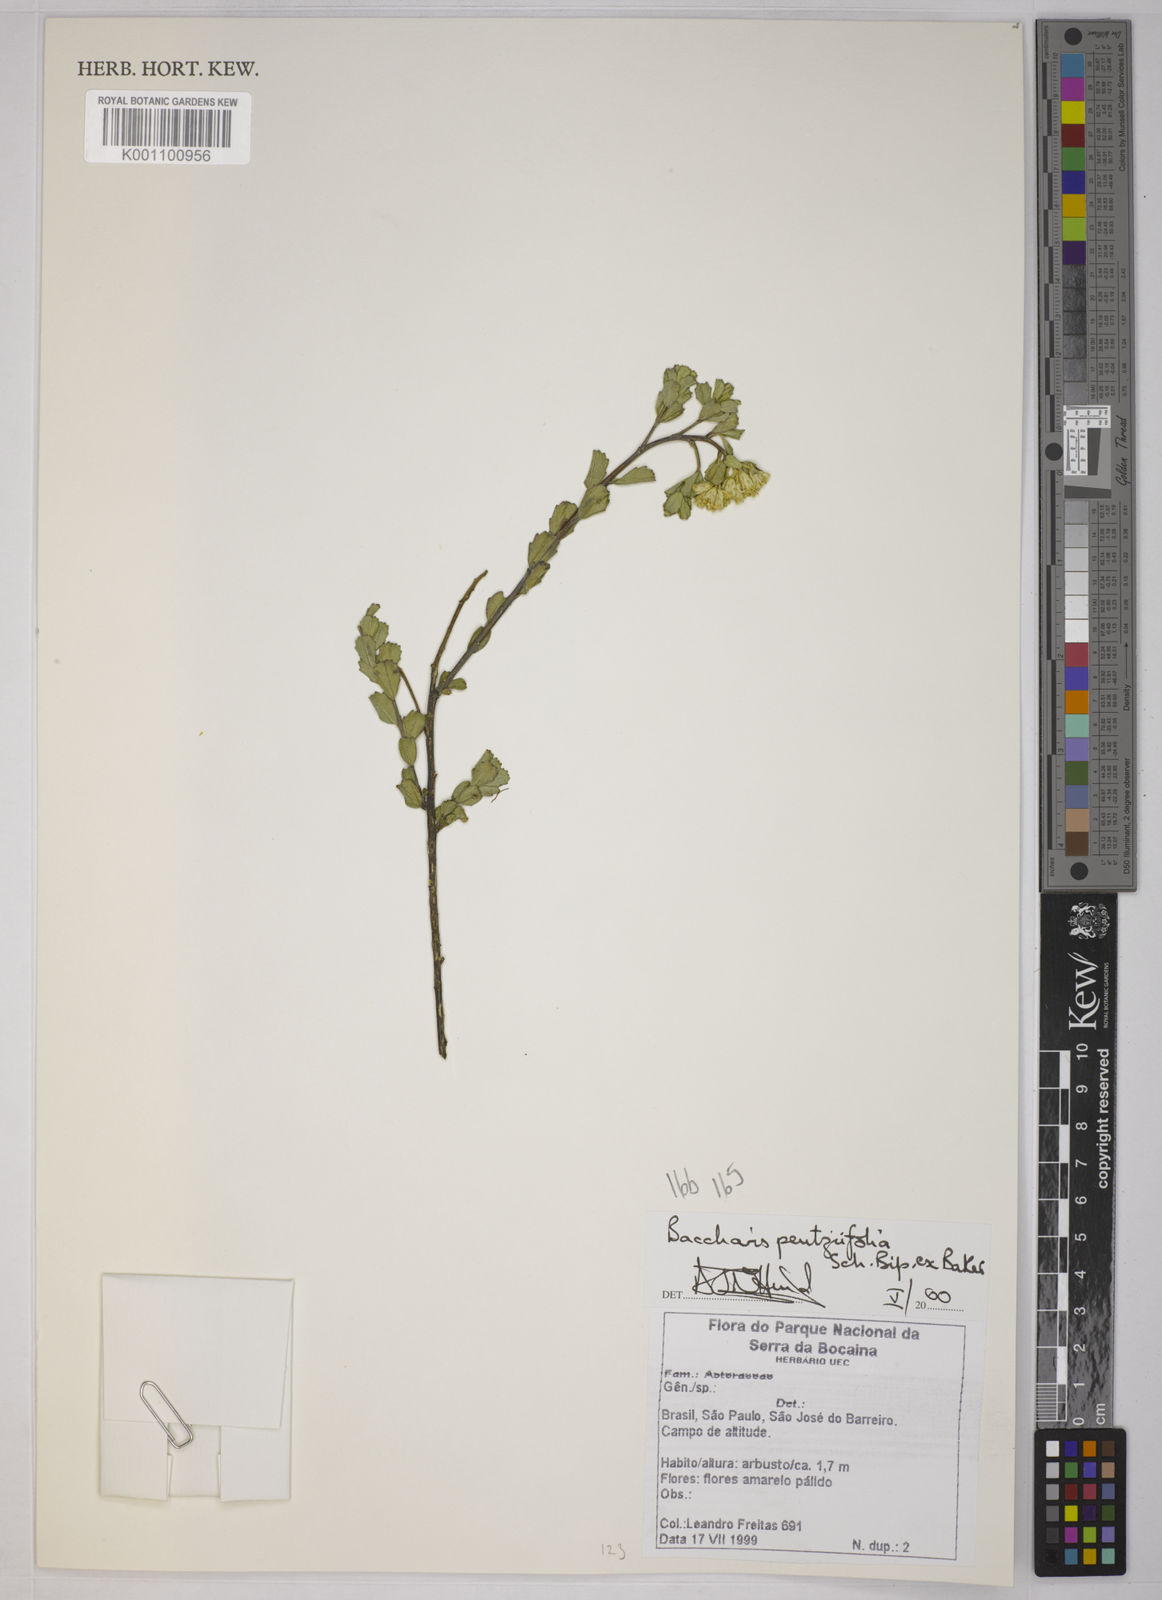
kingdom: Plantae
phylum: Tracheophyta
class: Magnoliopsida
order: Asterales
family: Asteraceae
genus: Baccharis
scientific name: Baccharis pentziifolia
